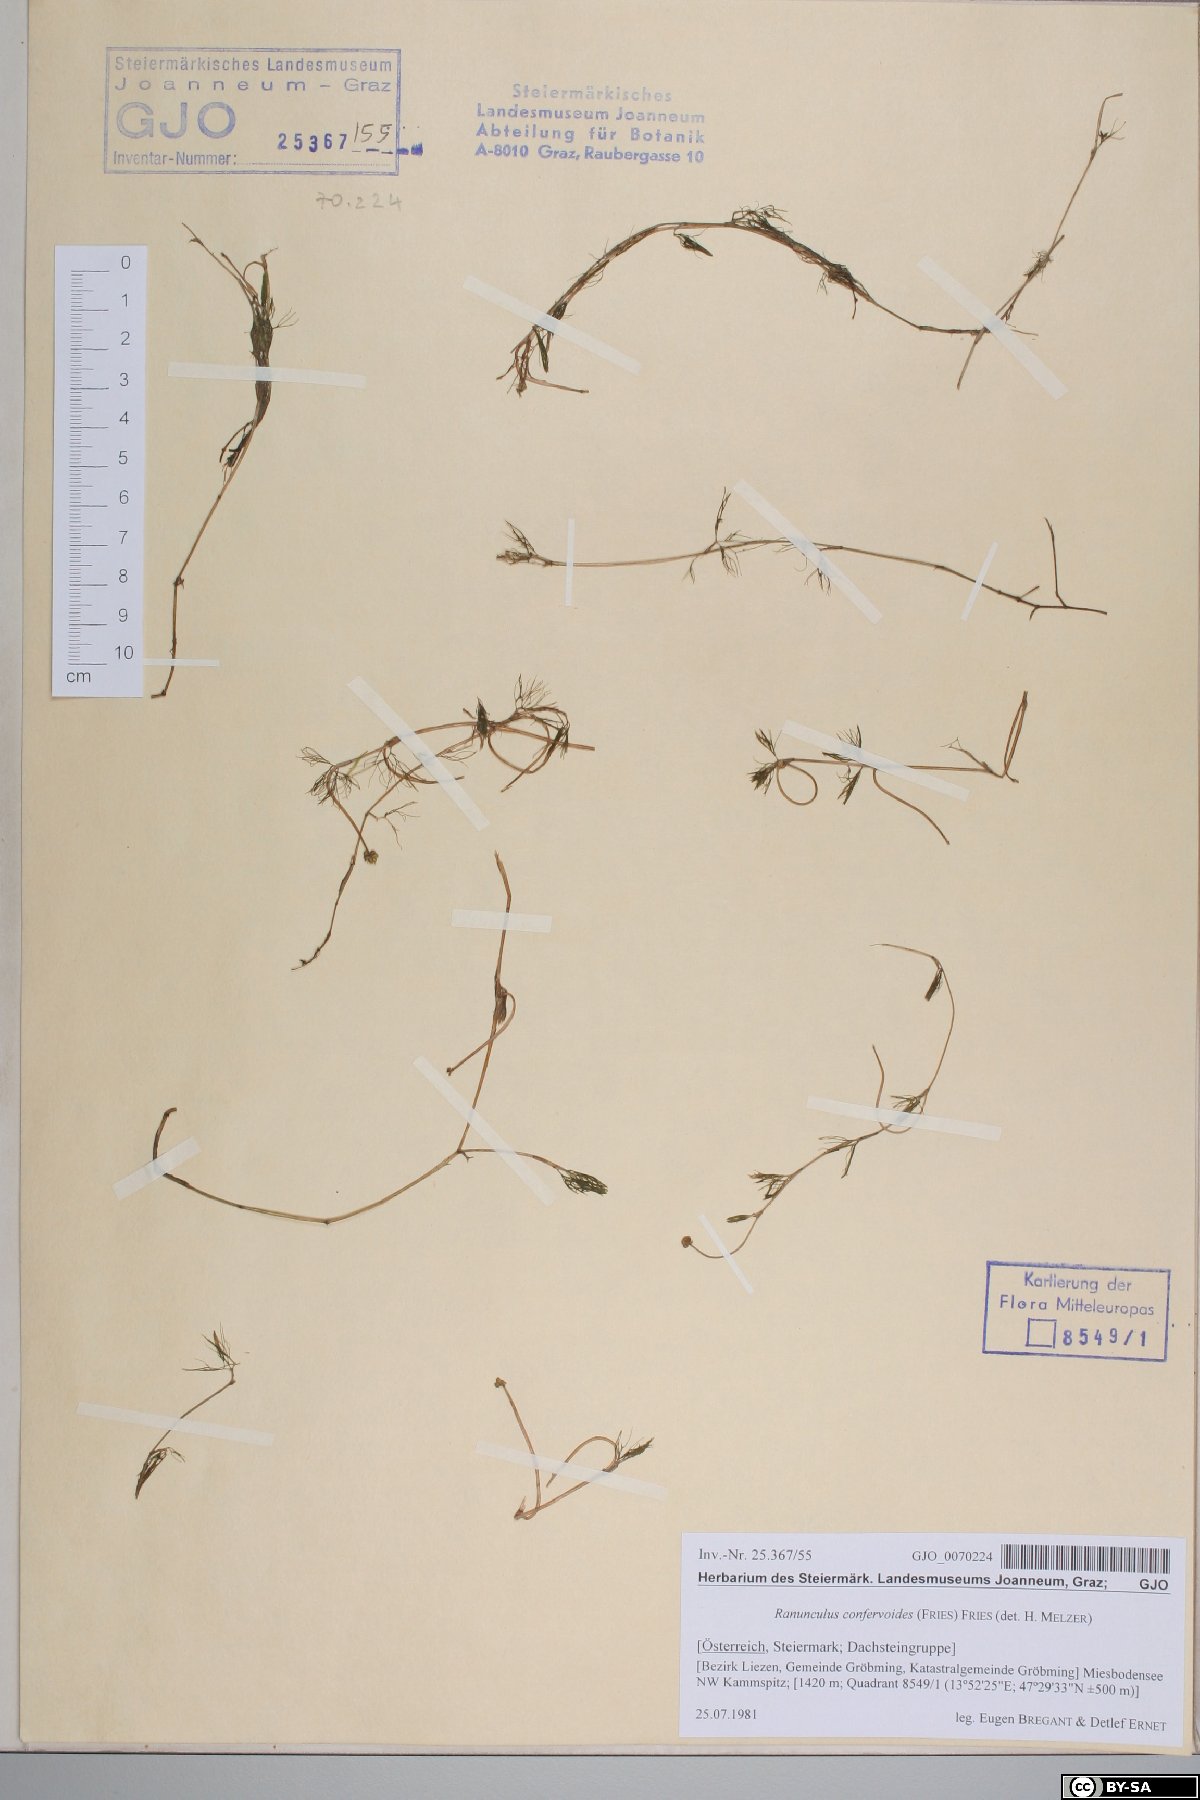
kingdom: Plantae
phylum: Tracheophyta
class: Magnoliopsida
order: Ranunculales
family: Ranunculaceae
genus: Ranunculus
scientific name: Ranunculus confervoides
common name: Delicate buttercup
